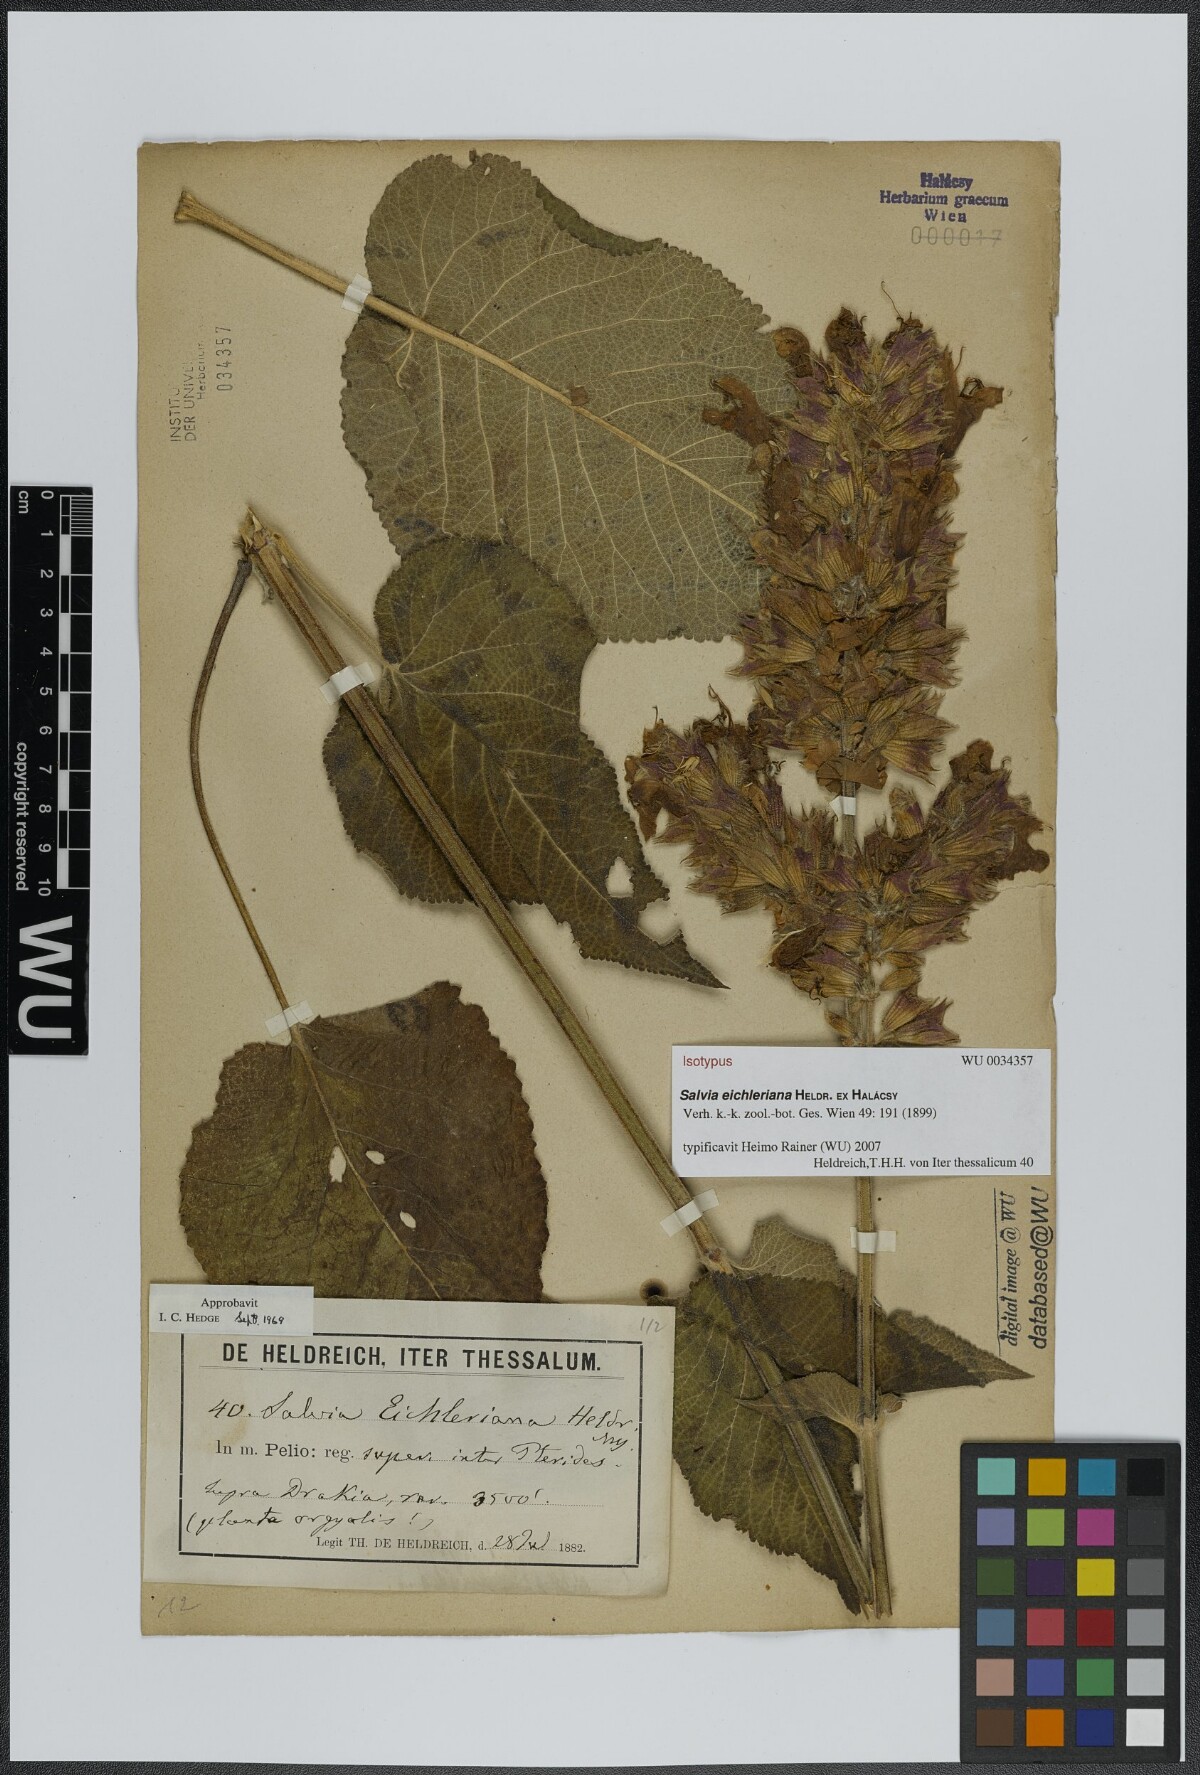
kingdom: Plantae
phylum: Tracheophyta
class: Magnoliopsida
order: Lamiales
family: Lamiaceae
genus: Salvia
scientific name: Salvia eichleriana
